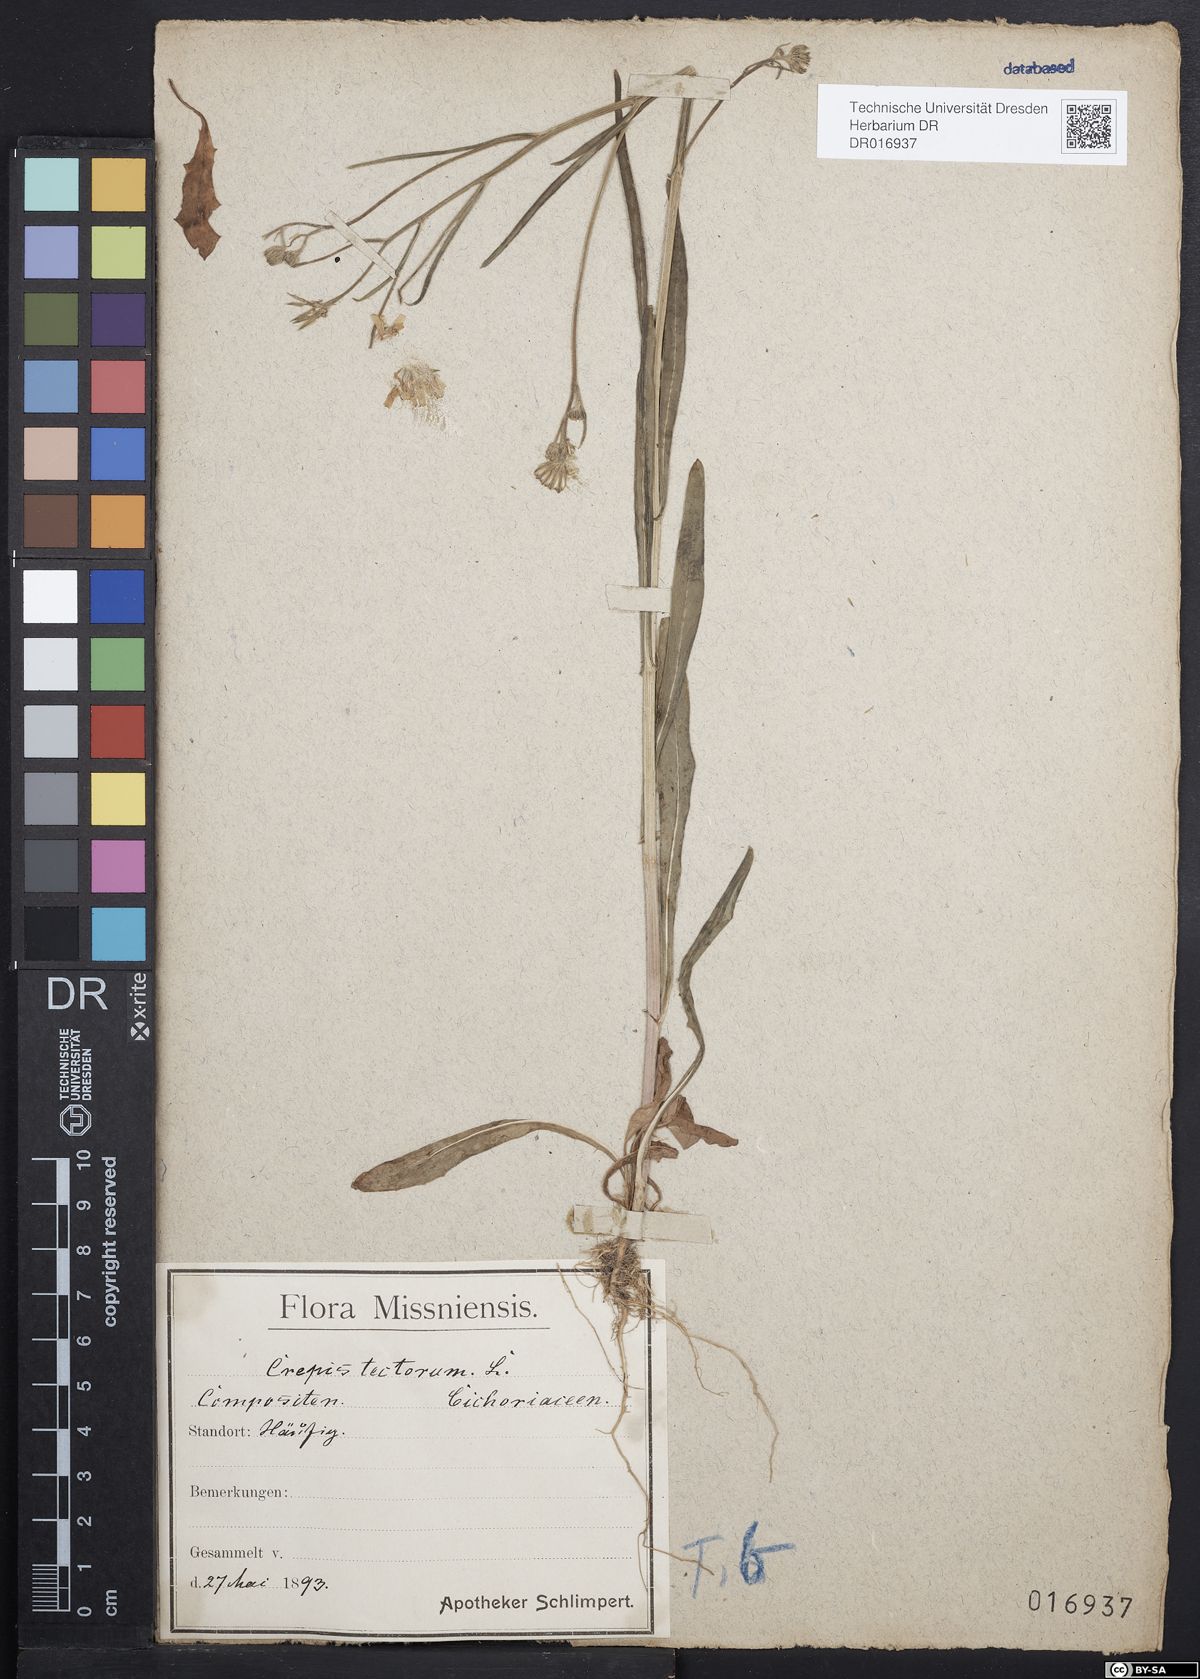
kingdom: Plantae
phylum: Tracheophyta
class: Magnoliopsida
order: Asterales
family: Asteraceae
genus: Crepis
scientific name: Crepis tectorum
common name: Narrow-leaved hawk's-beard
